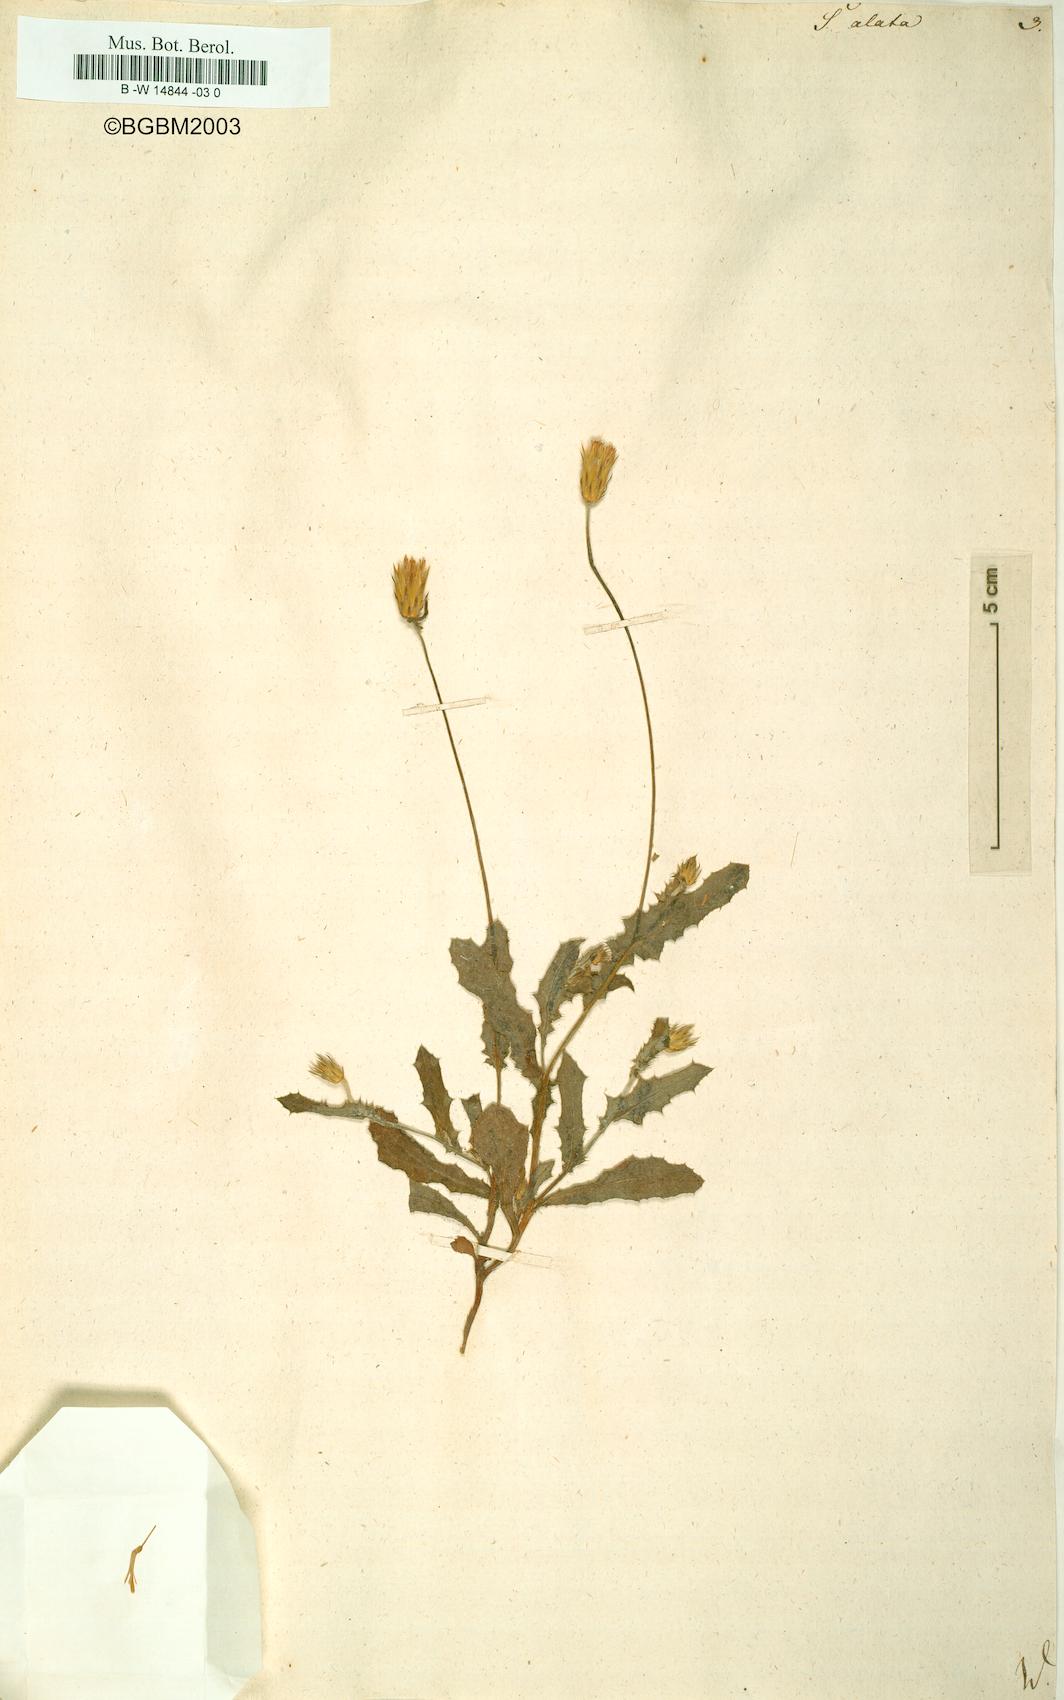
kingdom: Plantae
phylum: Tracheophyta
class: Magnoliopsida
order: Asterales
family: Asteraceae
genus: Serratula
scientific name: Serratula alata
